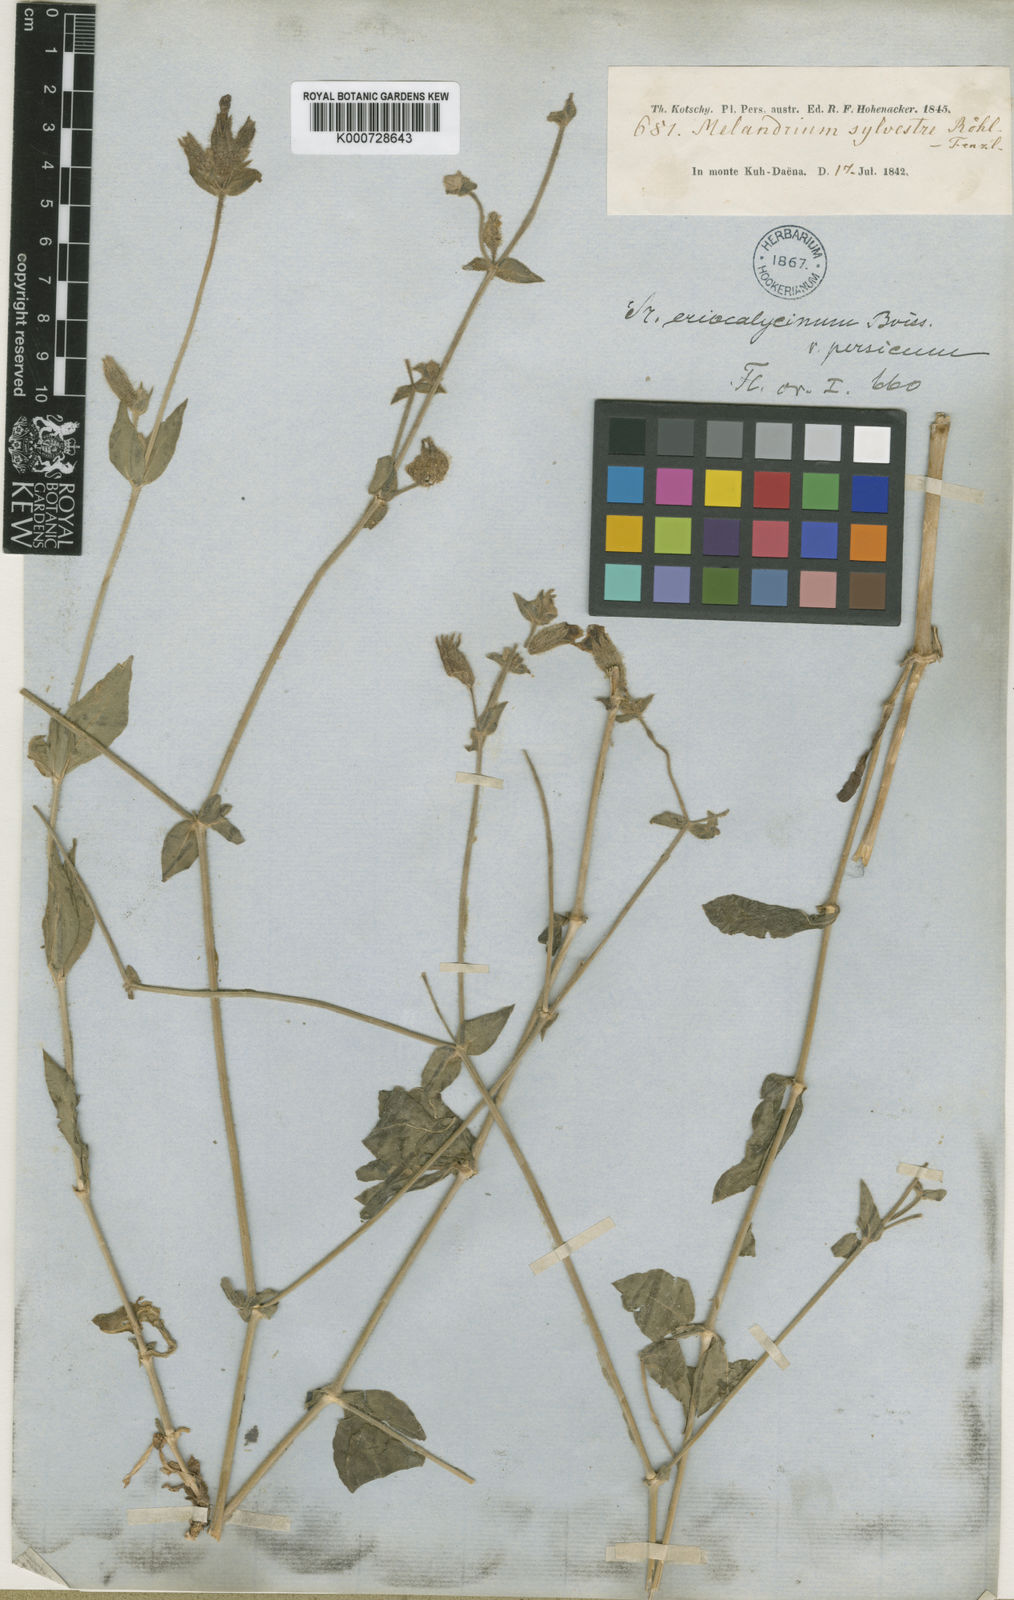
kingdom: Plantae
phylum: Tracheophyta
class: Magnoliopsida
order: Caryophyllales
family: Caryophyllaceae
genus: Silene
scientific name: Silene latifolia
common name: White campion
